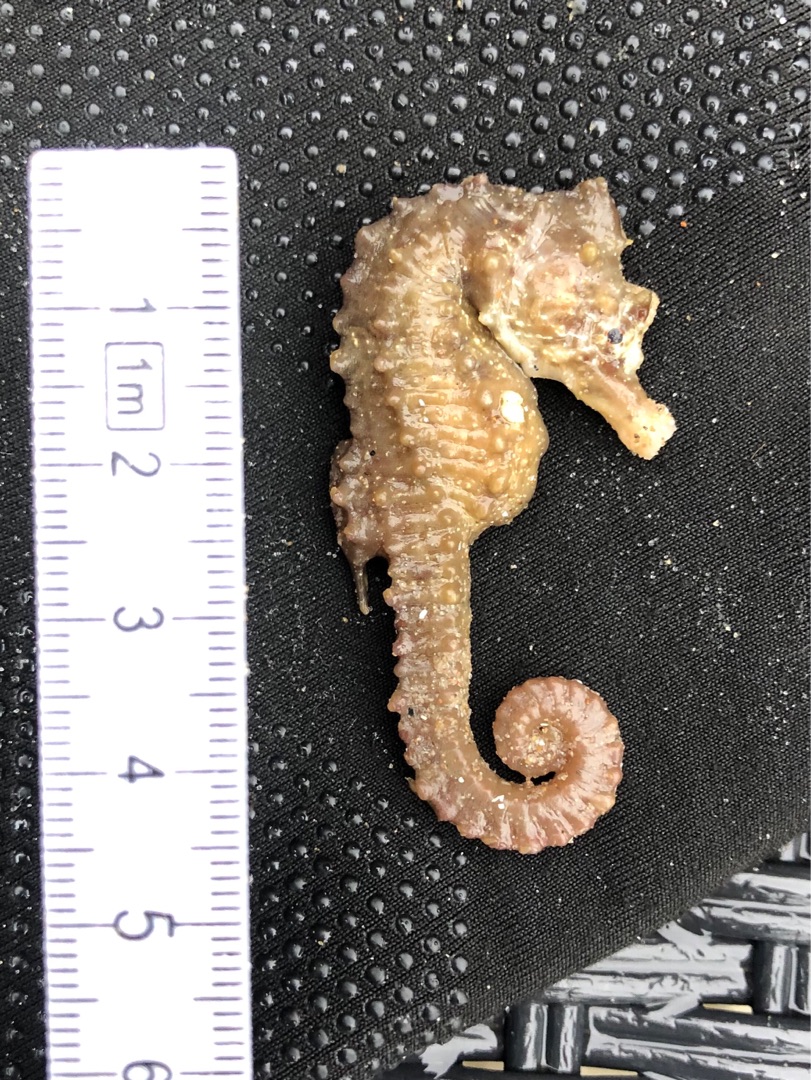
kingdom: Animalia
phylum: Chordata
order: Syngnathiformes
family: Syngnathidae
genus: Hippocampus
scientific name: Hippocampus hippocampus
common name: Kortsnudet søhest
